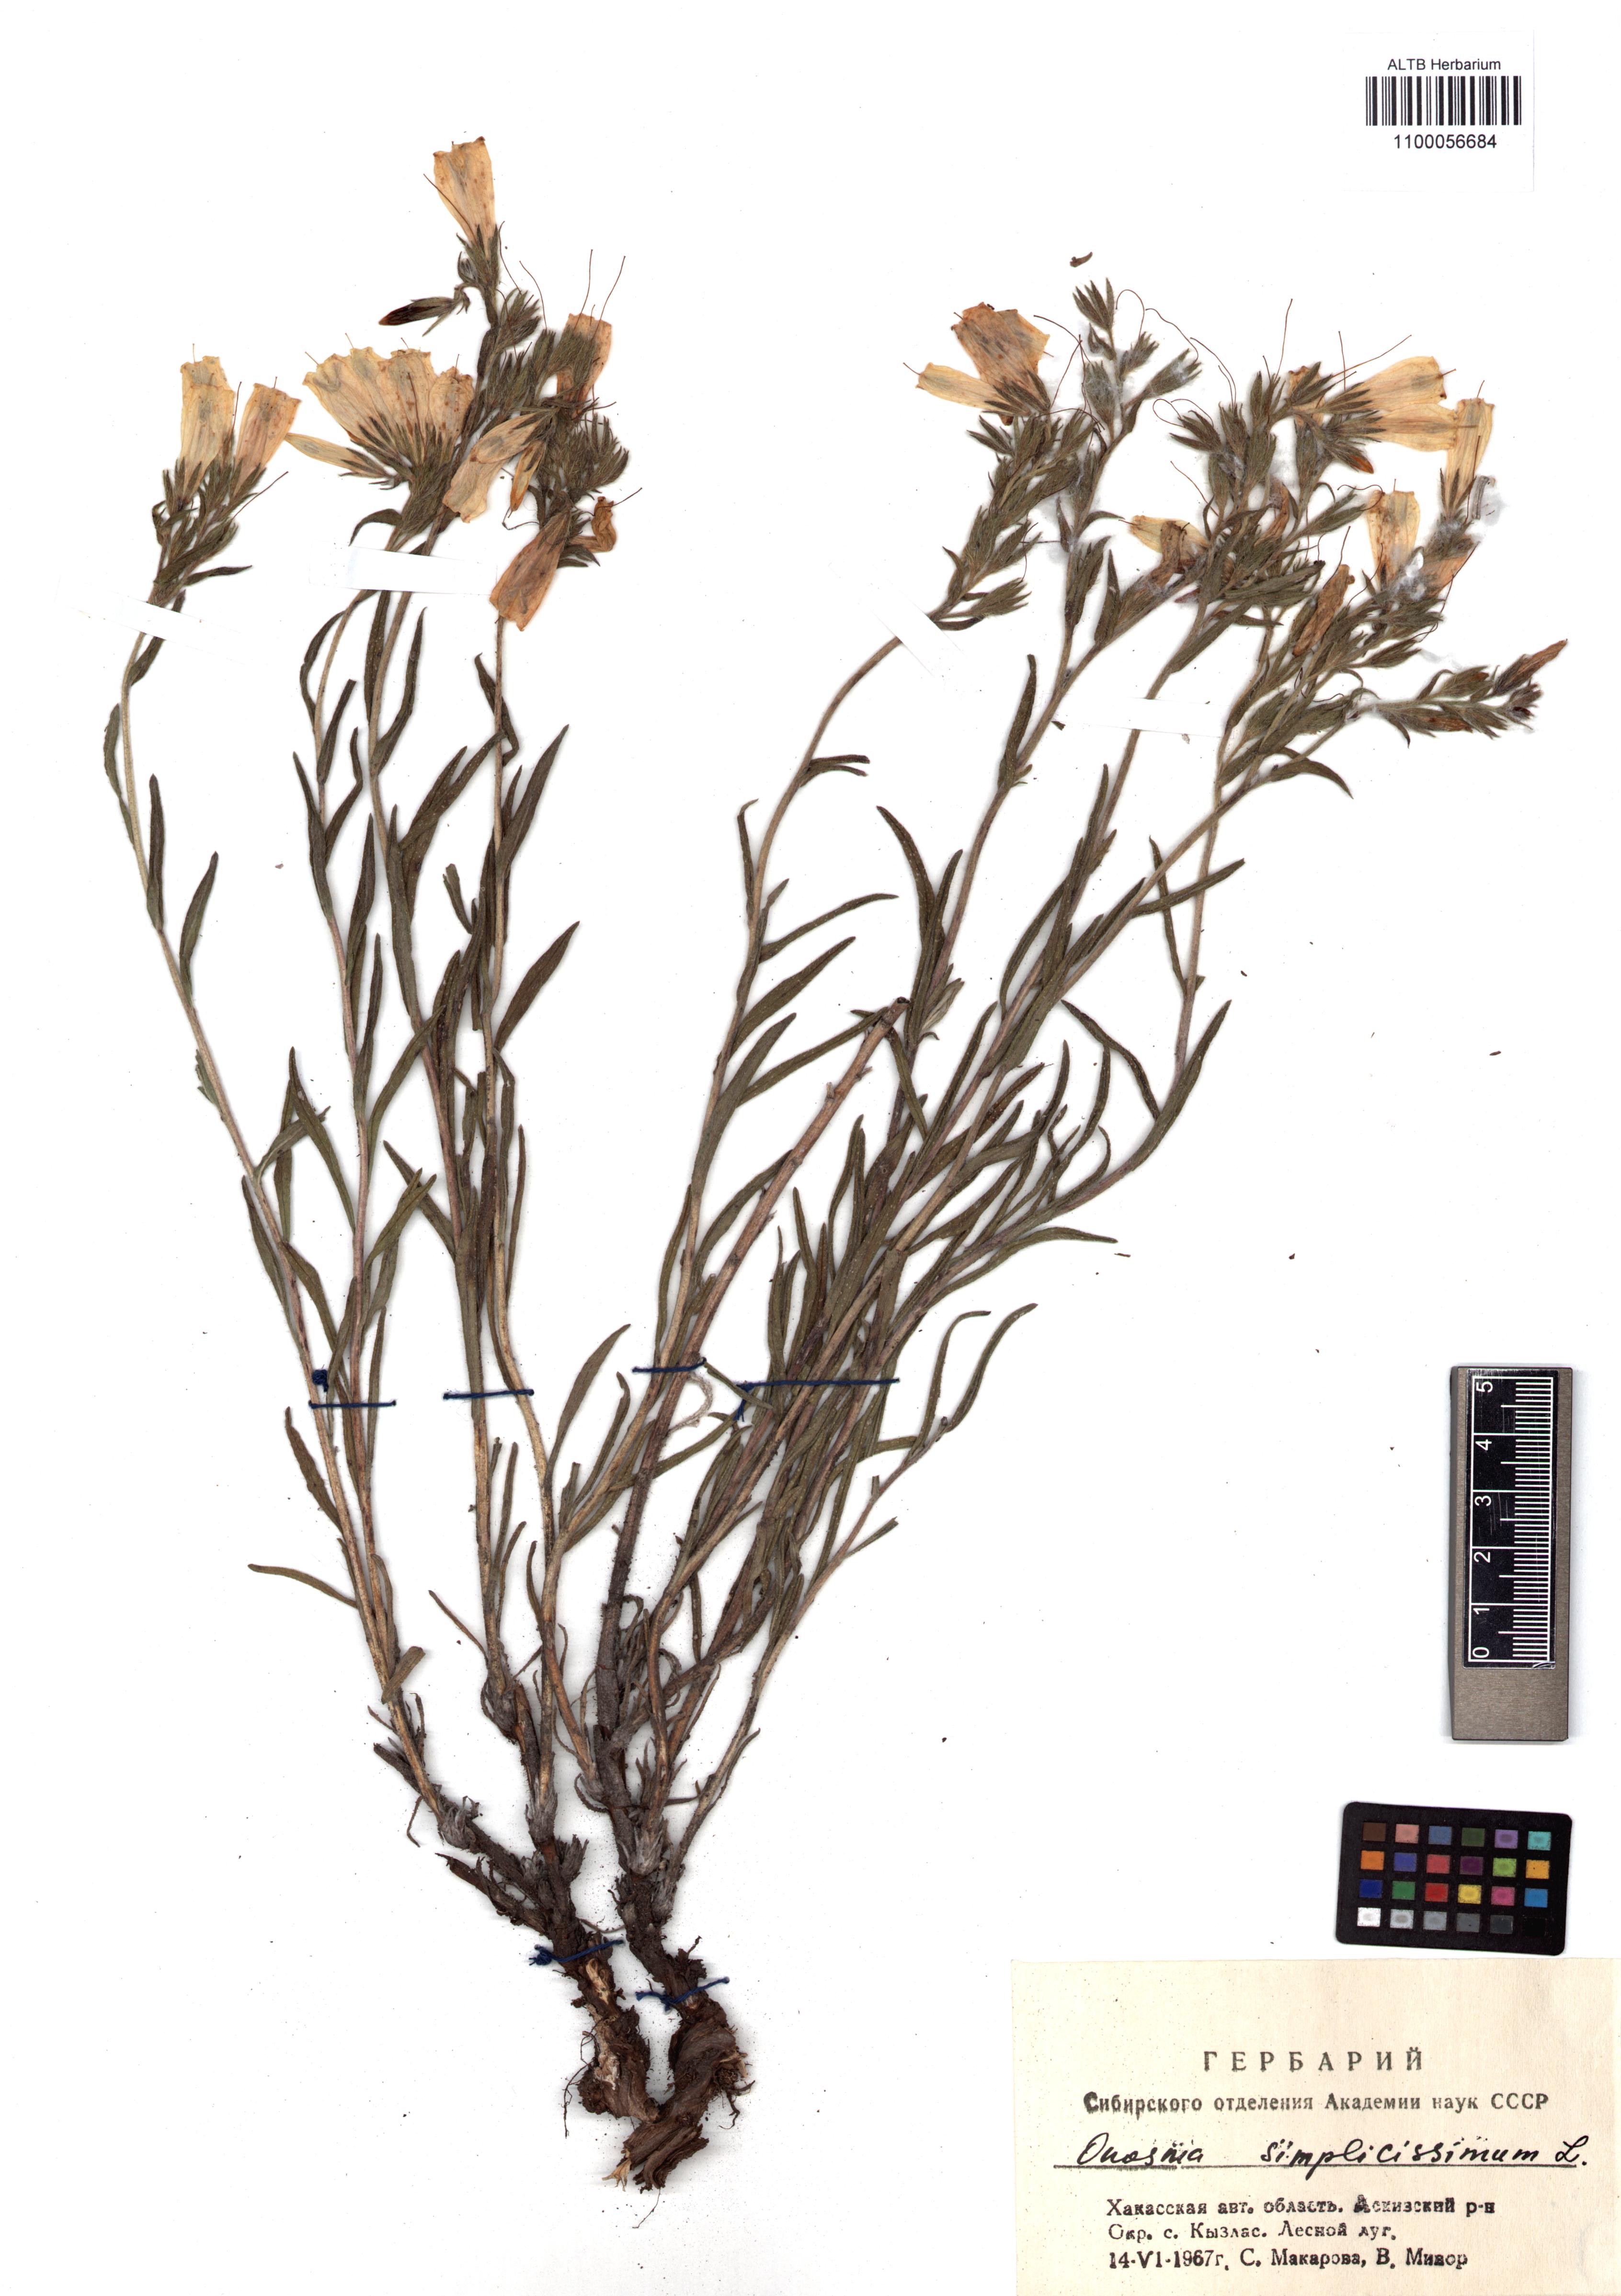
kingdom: Plantae
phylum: Tracheophyta
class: Magnoliopsida
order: Boraginales
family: Boraginaceae
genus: Onosma
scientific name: Onosma simplicissima
